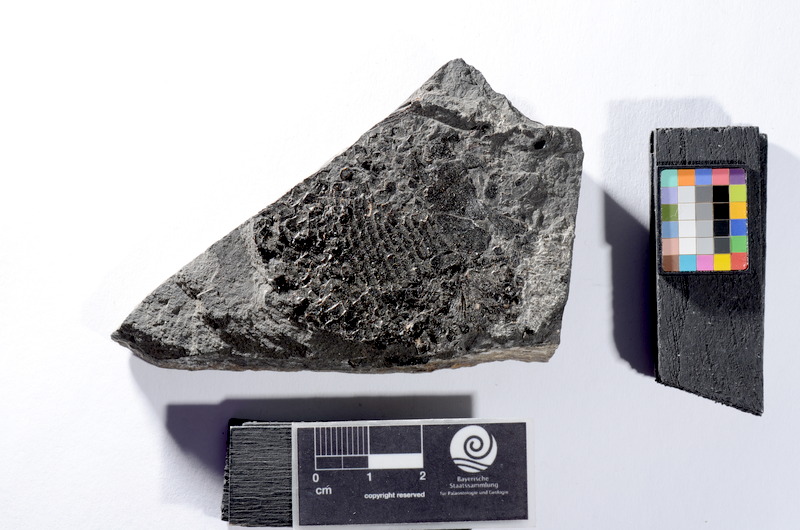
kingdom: Animalia
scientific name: Animalia
